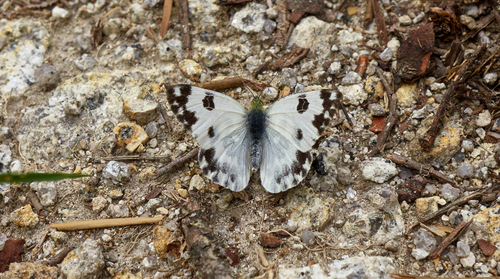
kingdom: Animalia
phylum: Arthropoda
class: Insecta
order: Lepidoptera
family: Pieridae
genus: Pontia
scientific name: Pontia daplidice
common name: Bath white
